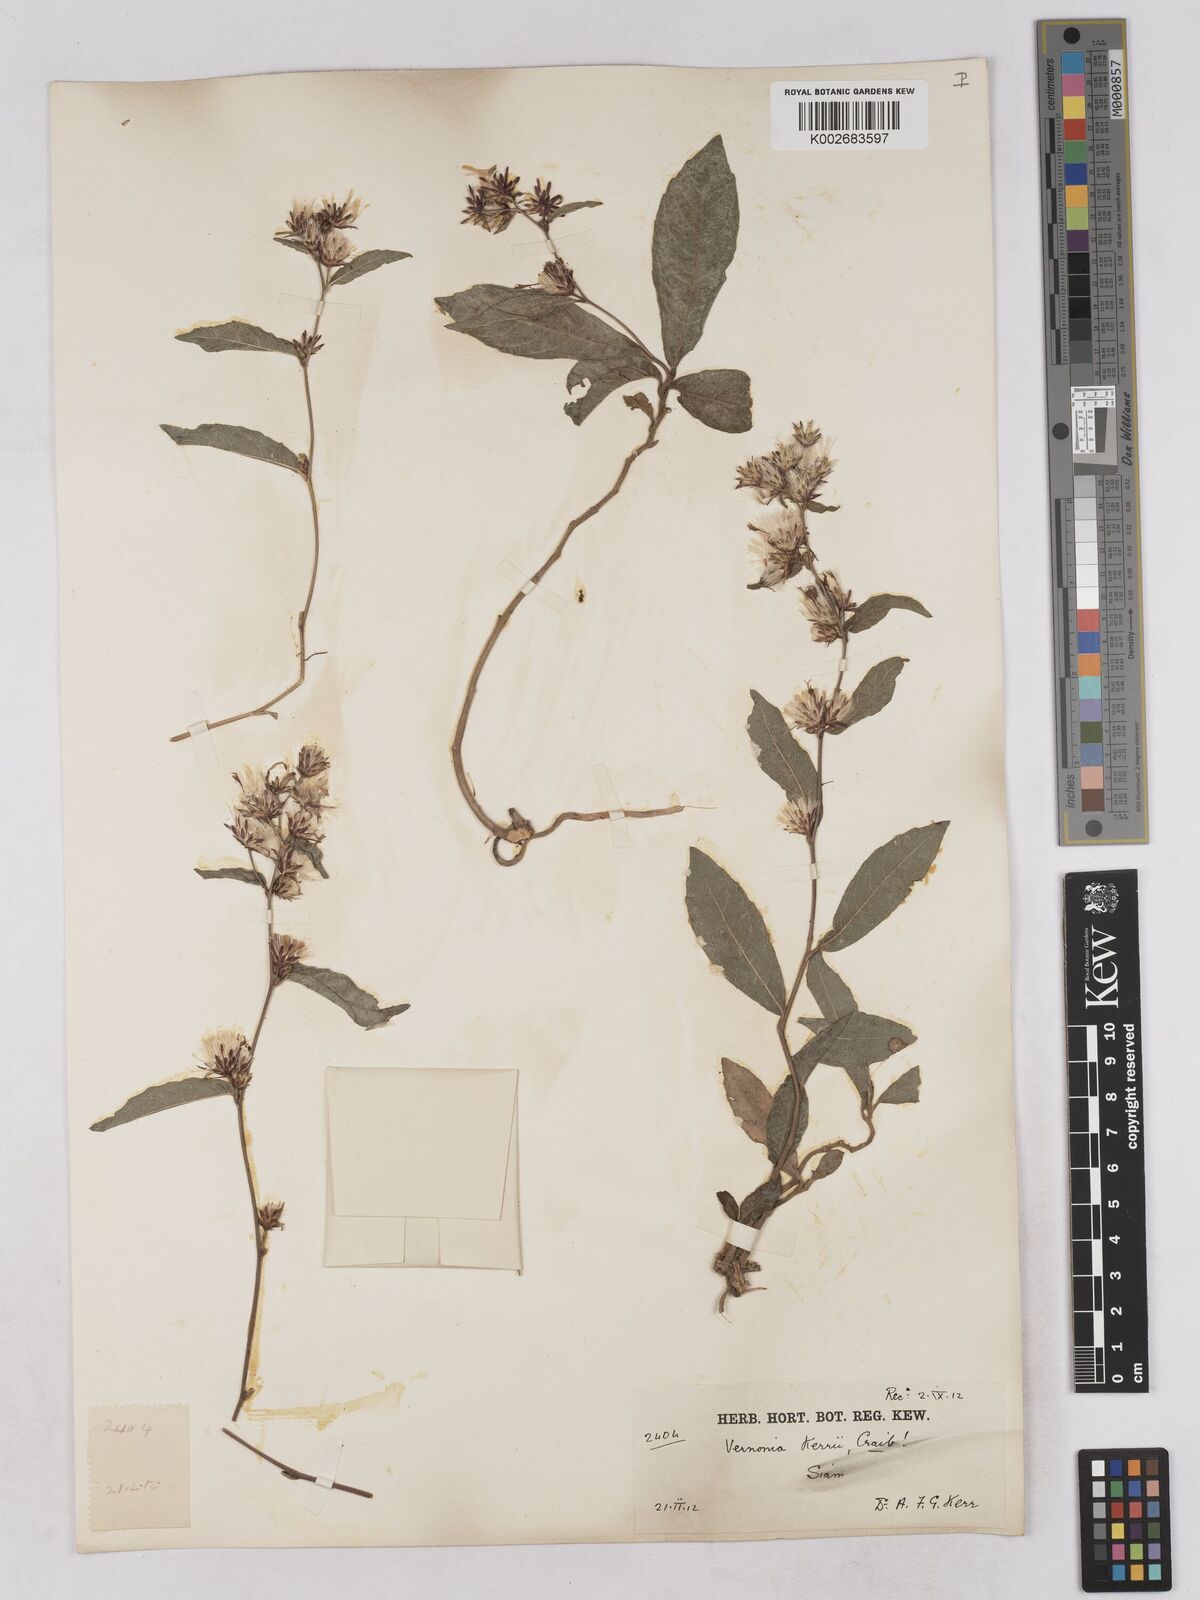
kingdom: Plantae
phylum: Tracheophyta
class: Magnoliopsida
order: Asterales
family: Asteraceae
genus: Acilepis
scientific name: Acilepis kerrii
